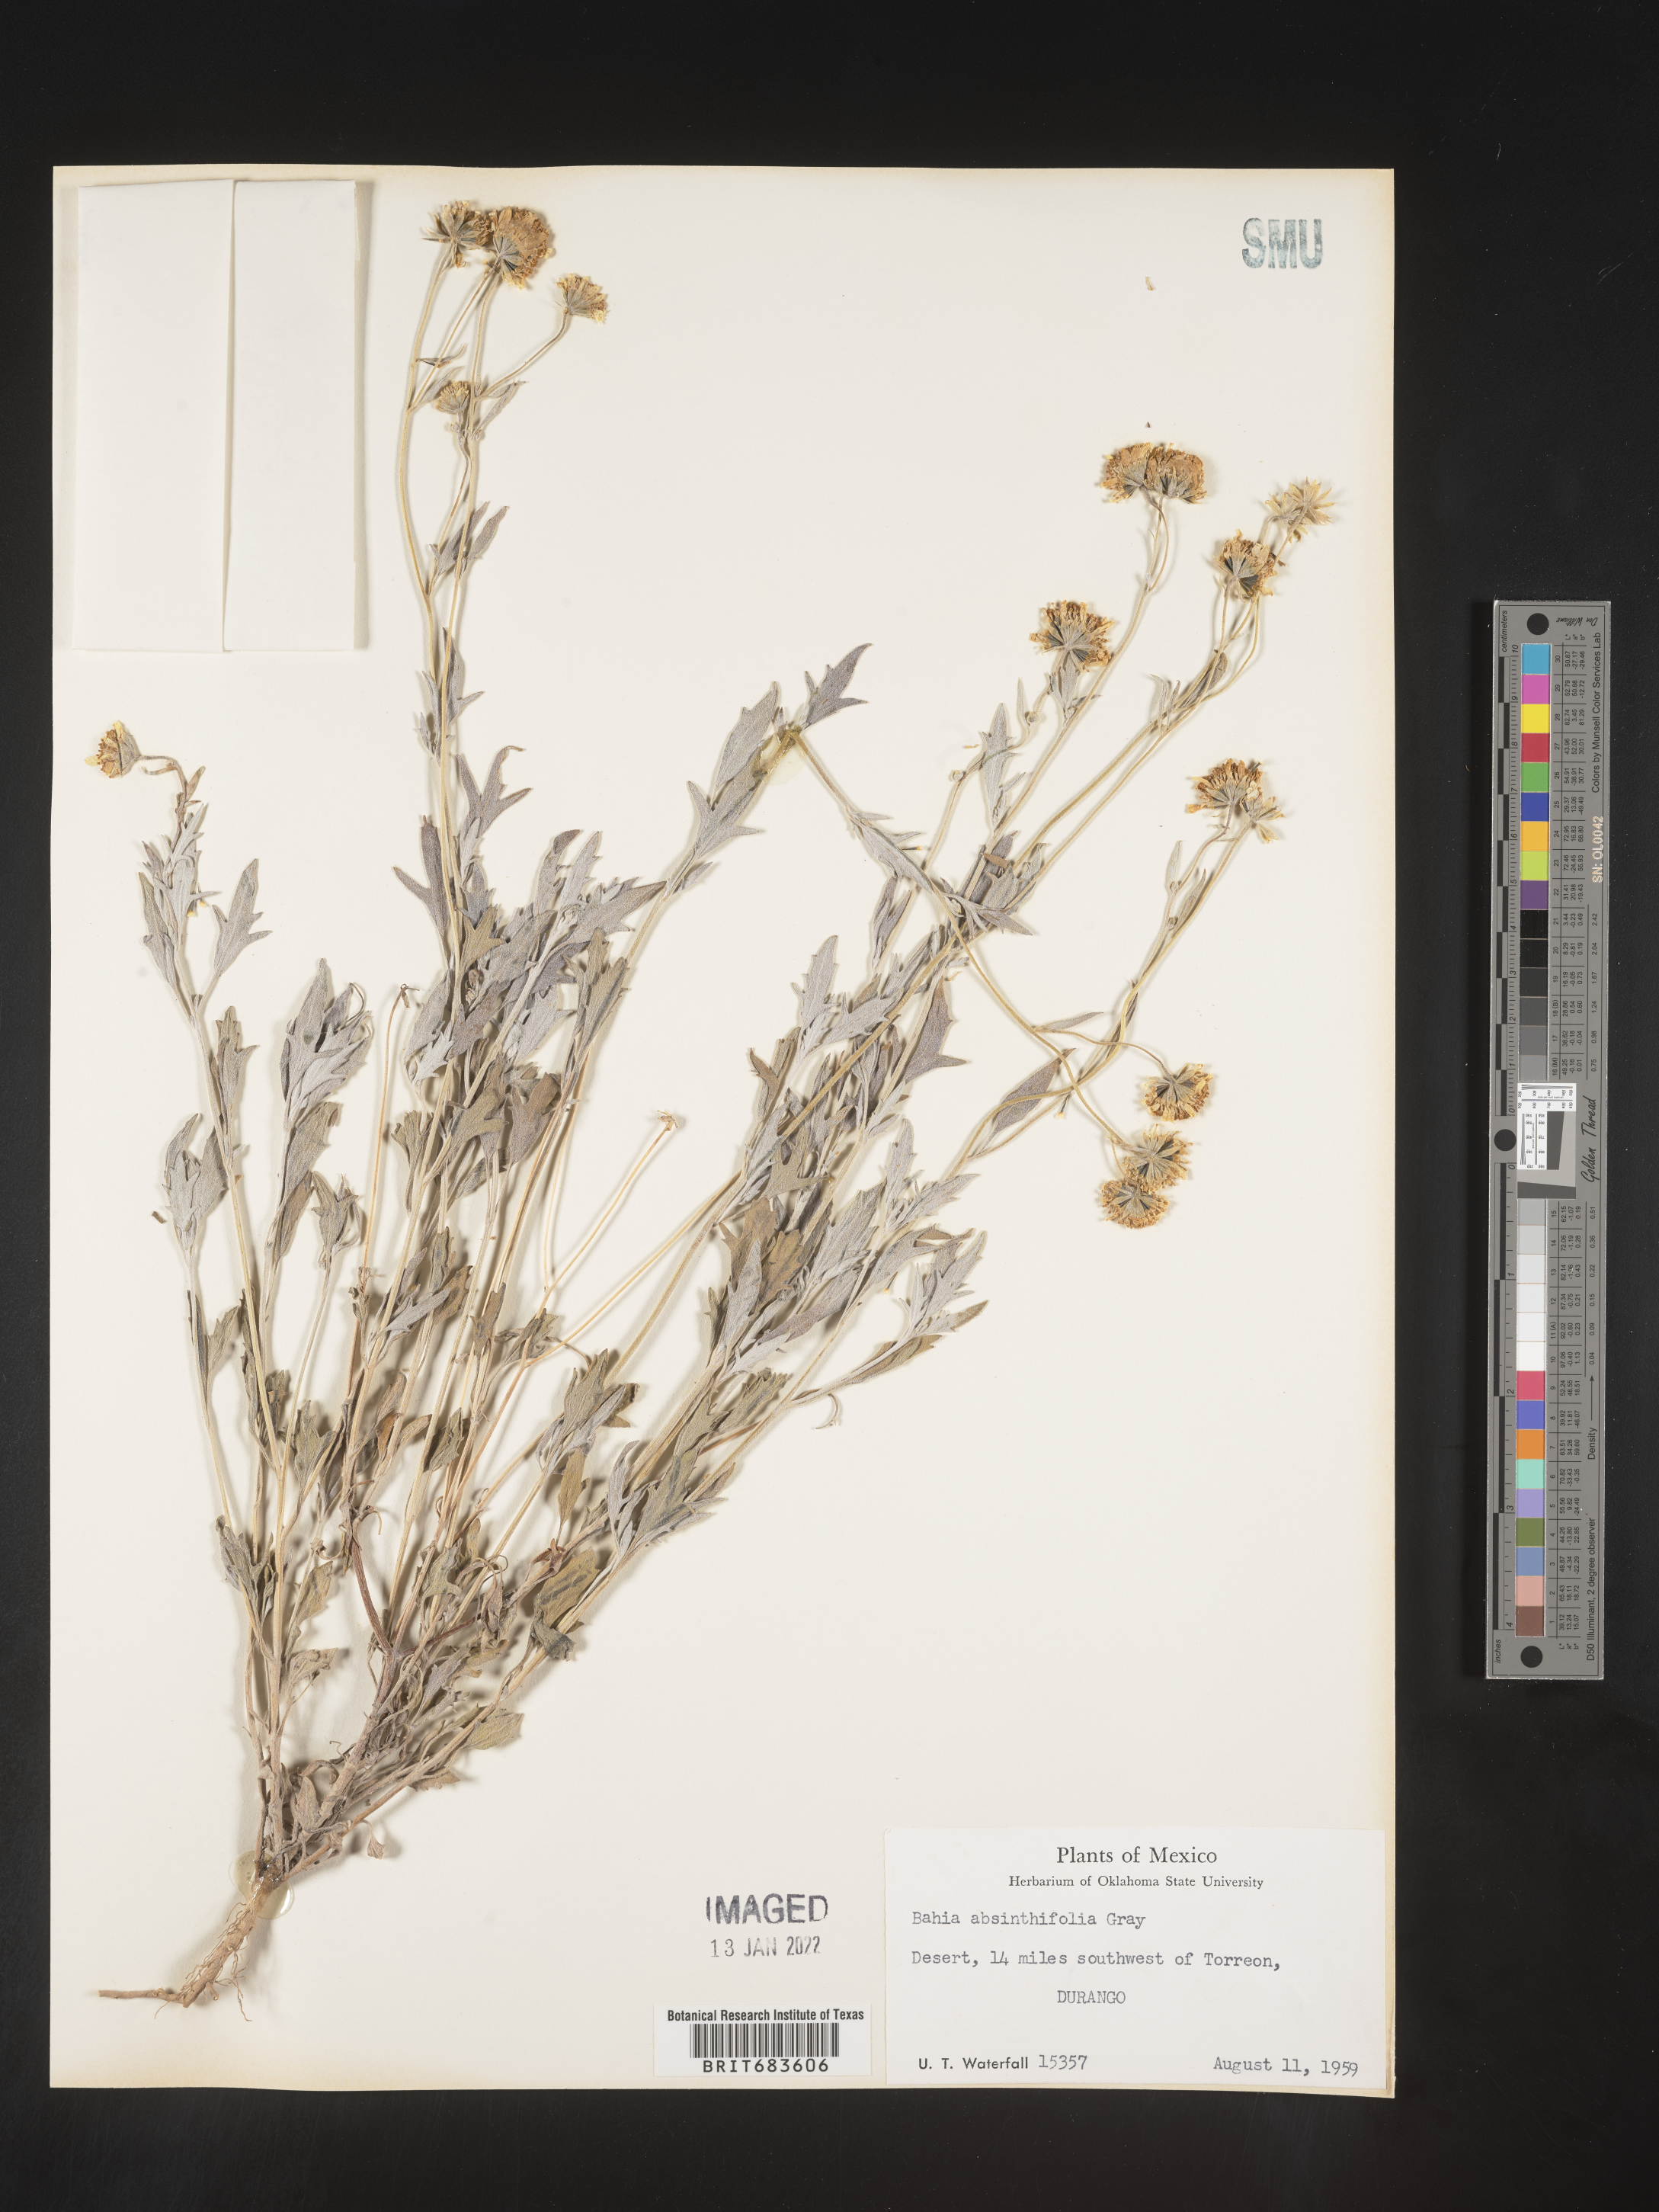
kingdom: Plantae
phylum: Tracheophyta
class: Magnoliopsida
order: Asterales
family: Asteraceae
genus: Picradeniopsis
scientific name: Picradeniopsis absinthifolia
